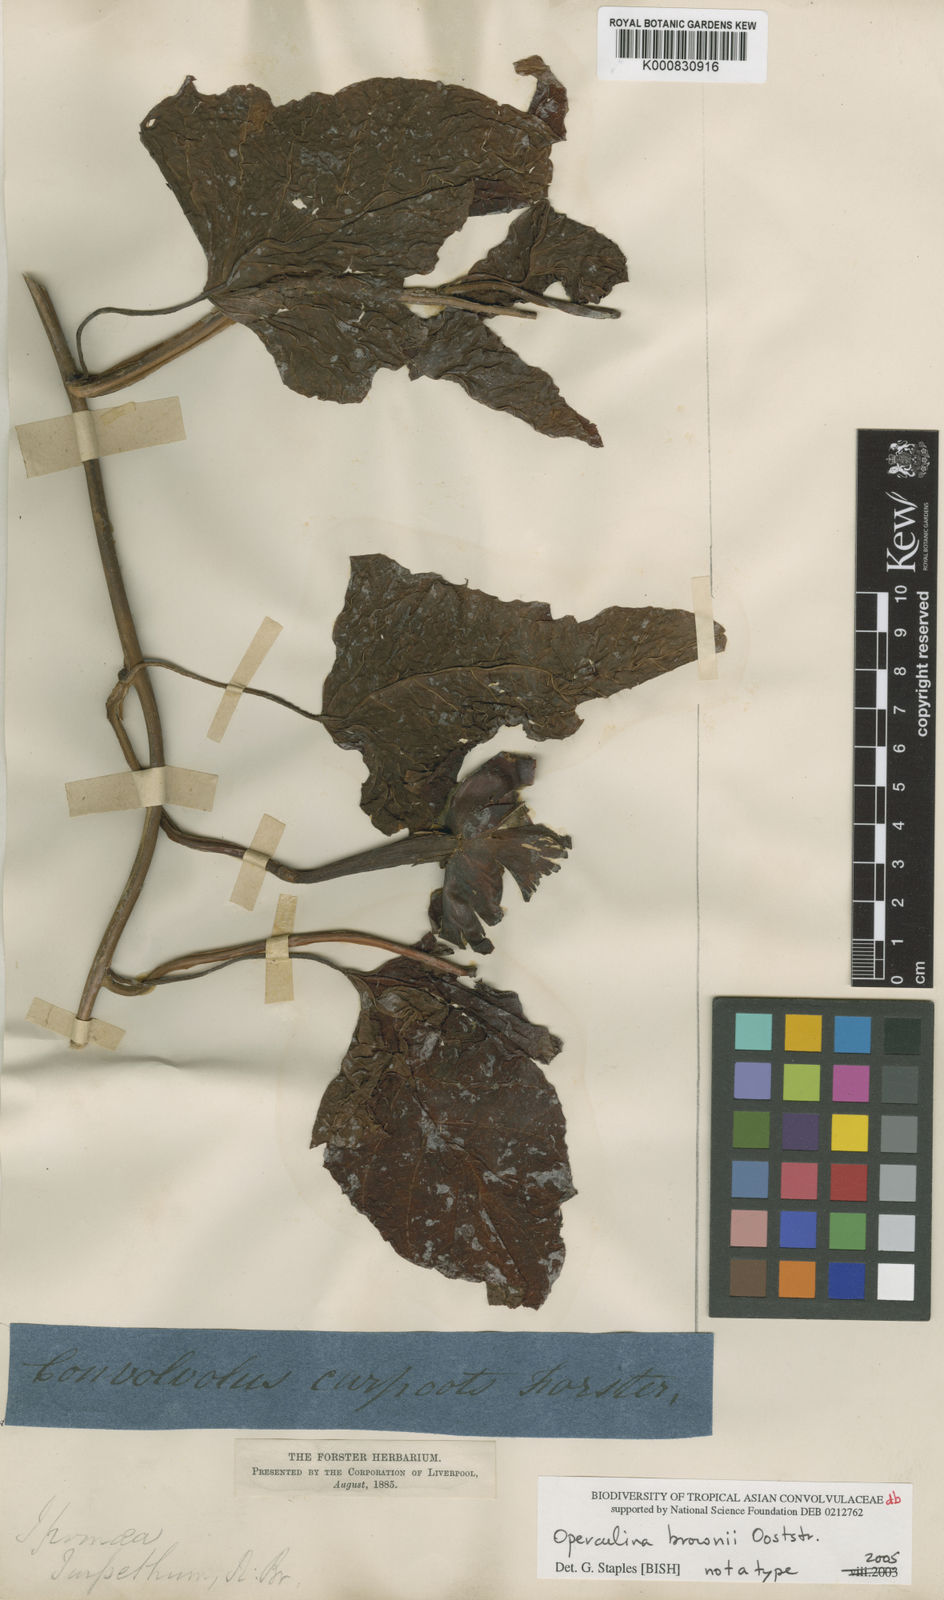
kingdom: Plantae
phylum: Tracheophyta
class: Magnoliopsida
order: Solanales
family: Convolvulaceae
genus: Operculina
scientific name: Operculina codonantha
